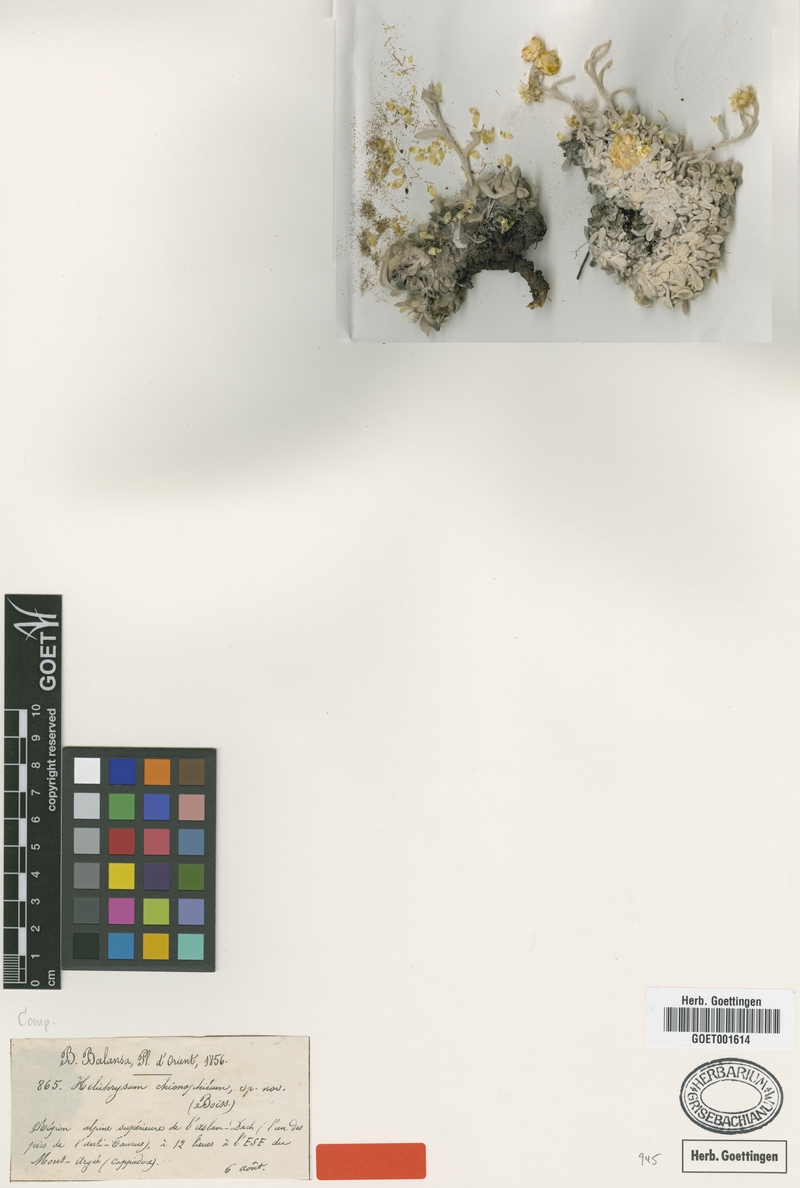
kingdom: Plantae
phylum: Tracheophyta
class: Magnoliopsida
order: Asterales
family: Asteraceae
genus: Helichrysum
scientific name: Helichrysum chionophilum
